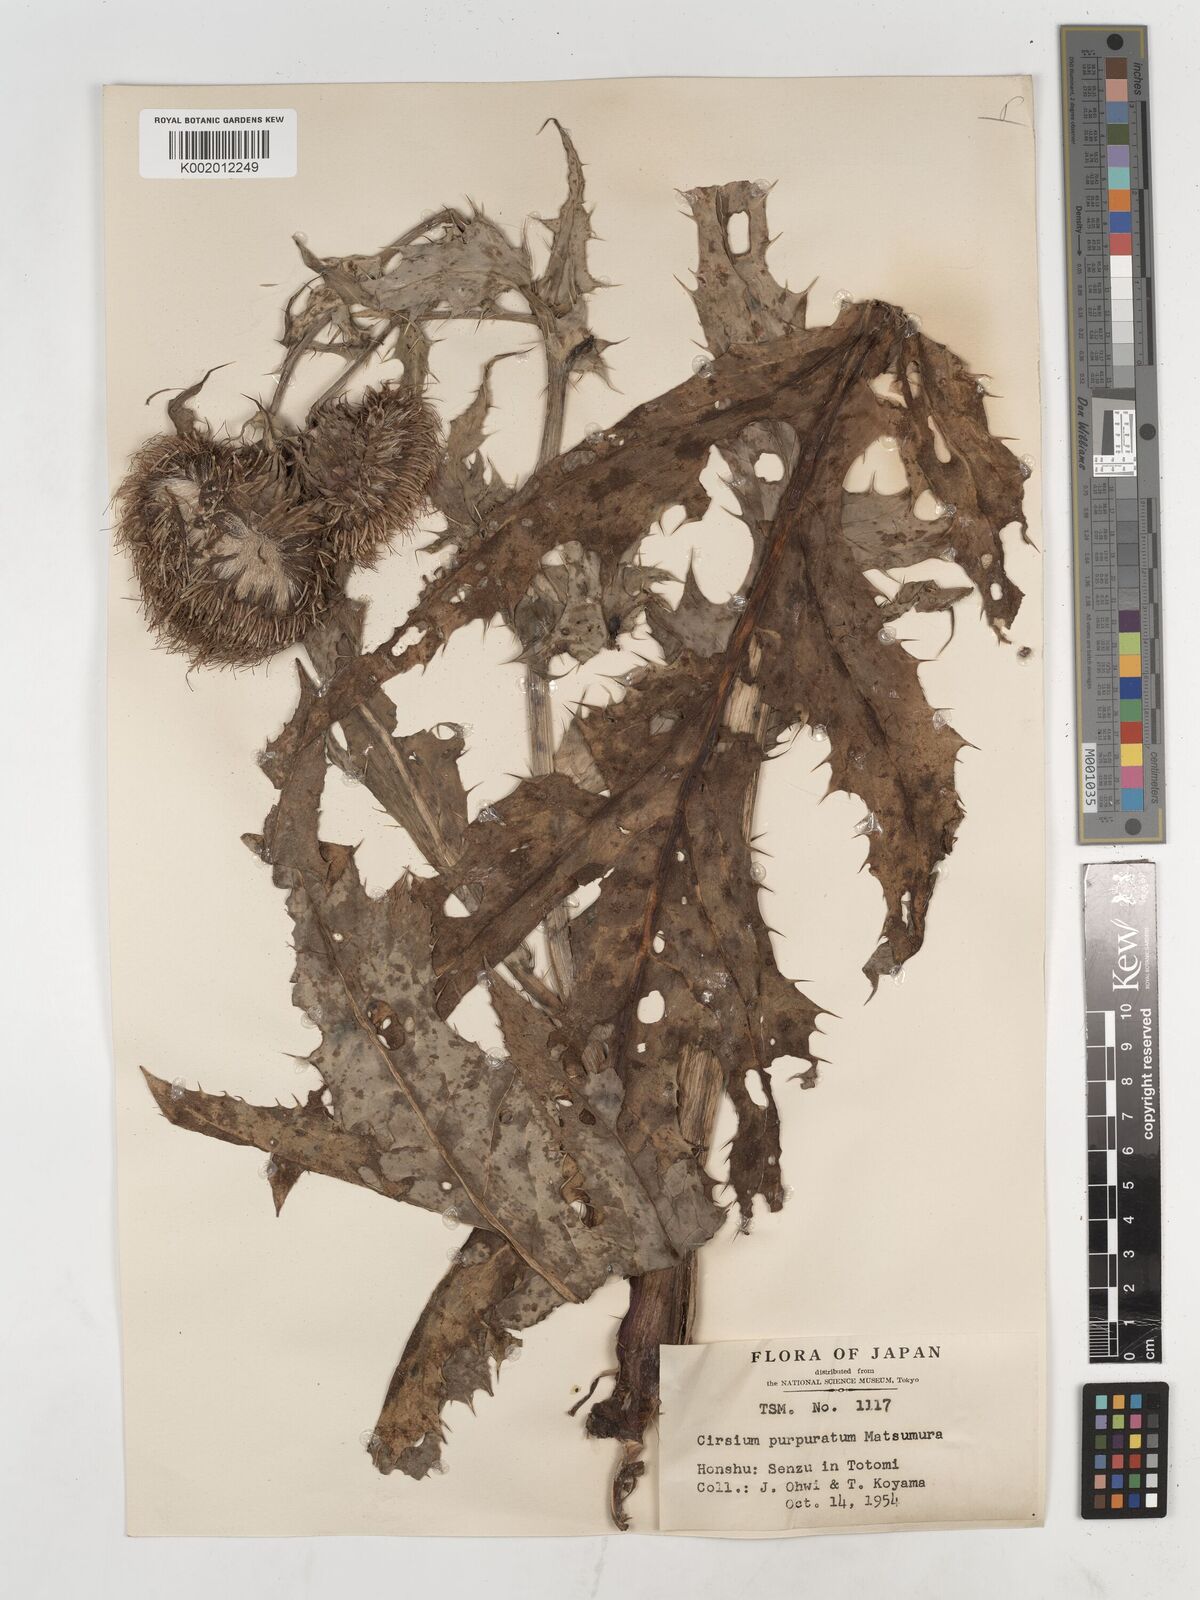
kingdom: Plantae
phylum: Tracheophyta
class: Magnoliopsida
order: Asterales
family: Asteraceae
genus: Cirsium
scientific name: Cirsium purpuratum
